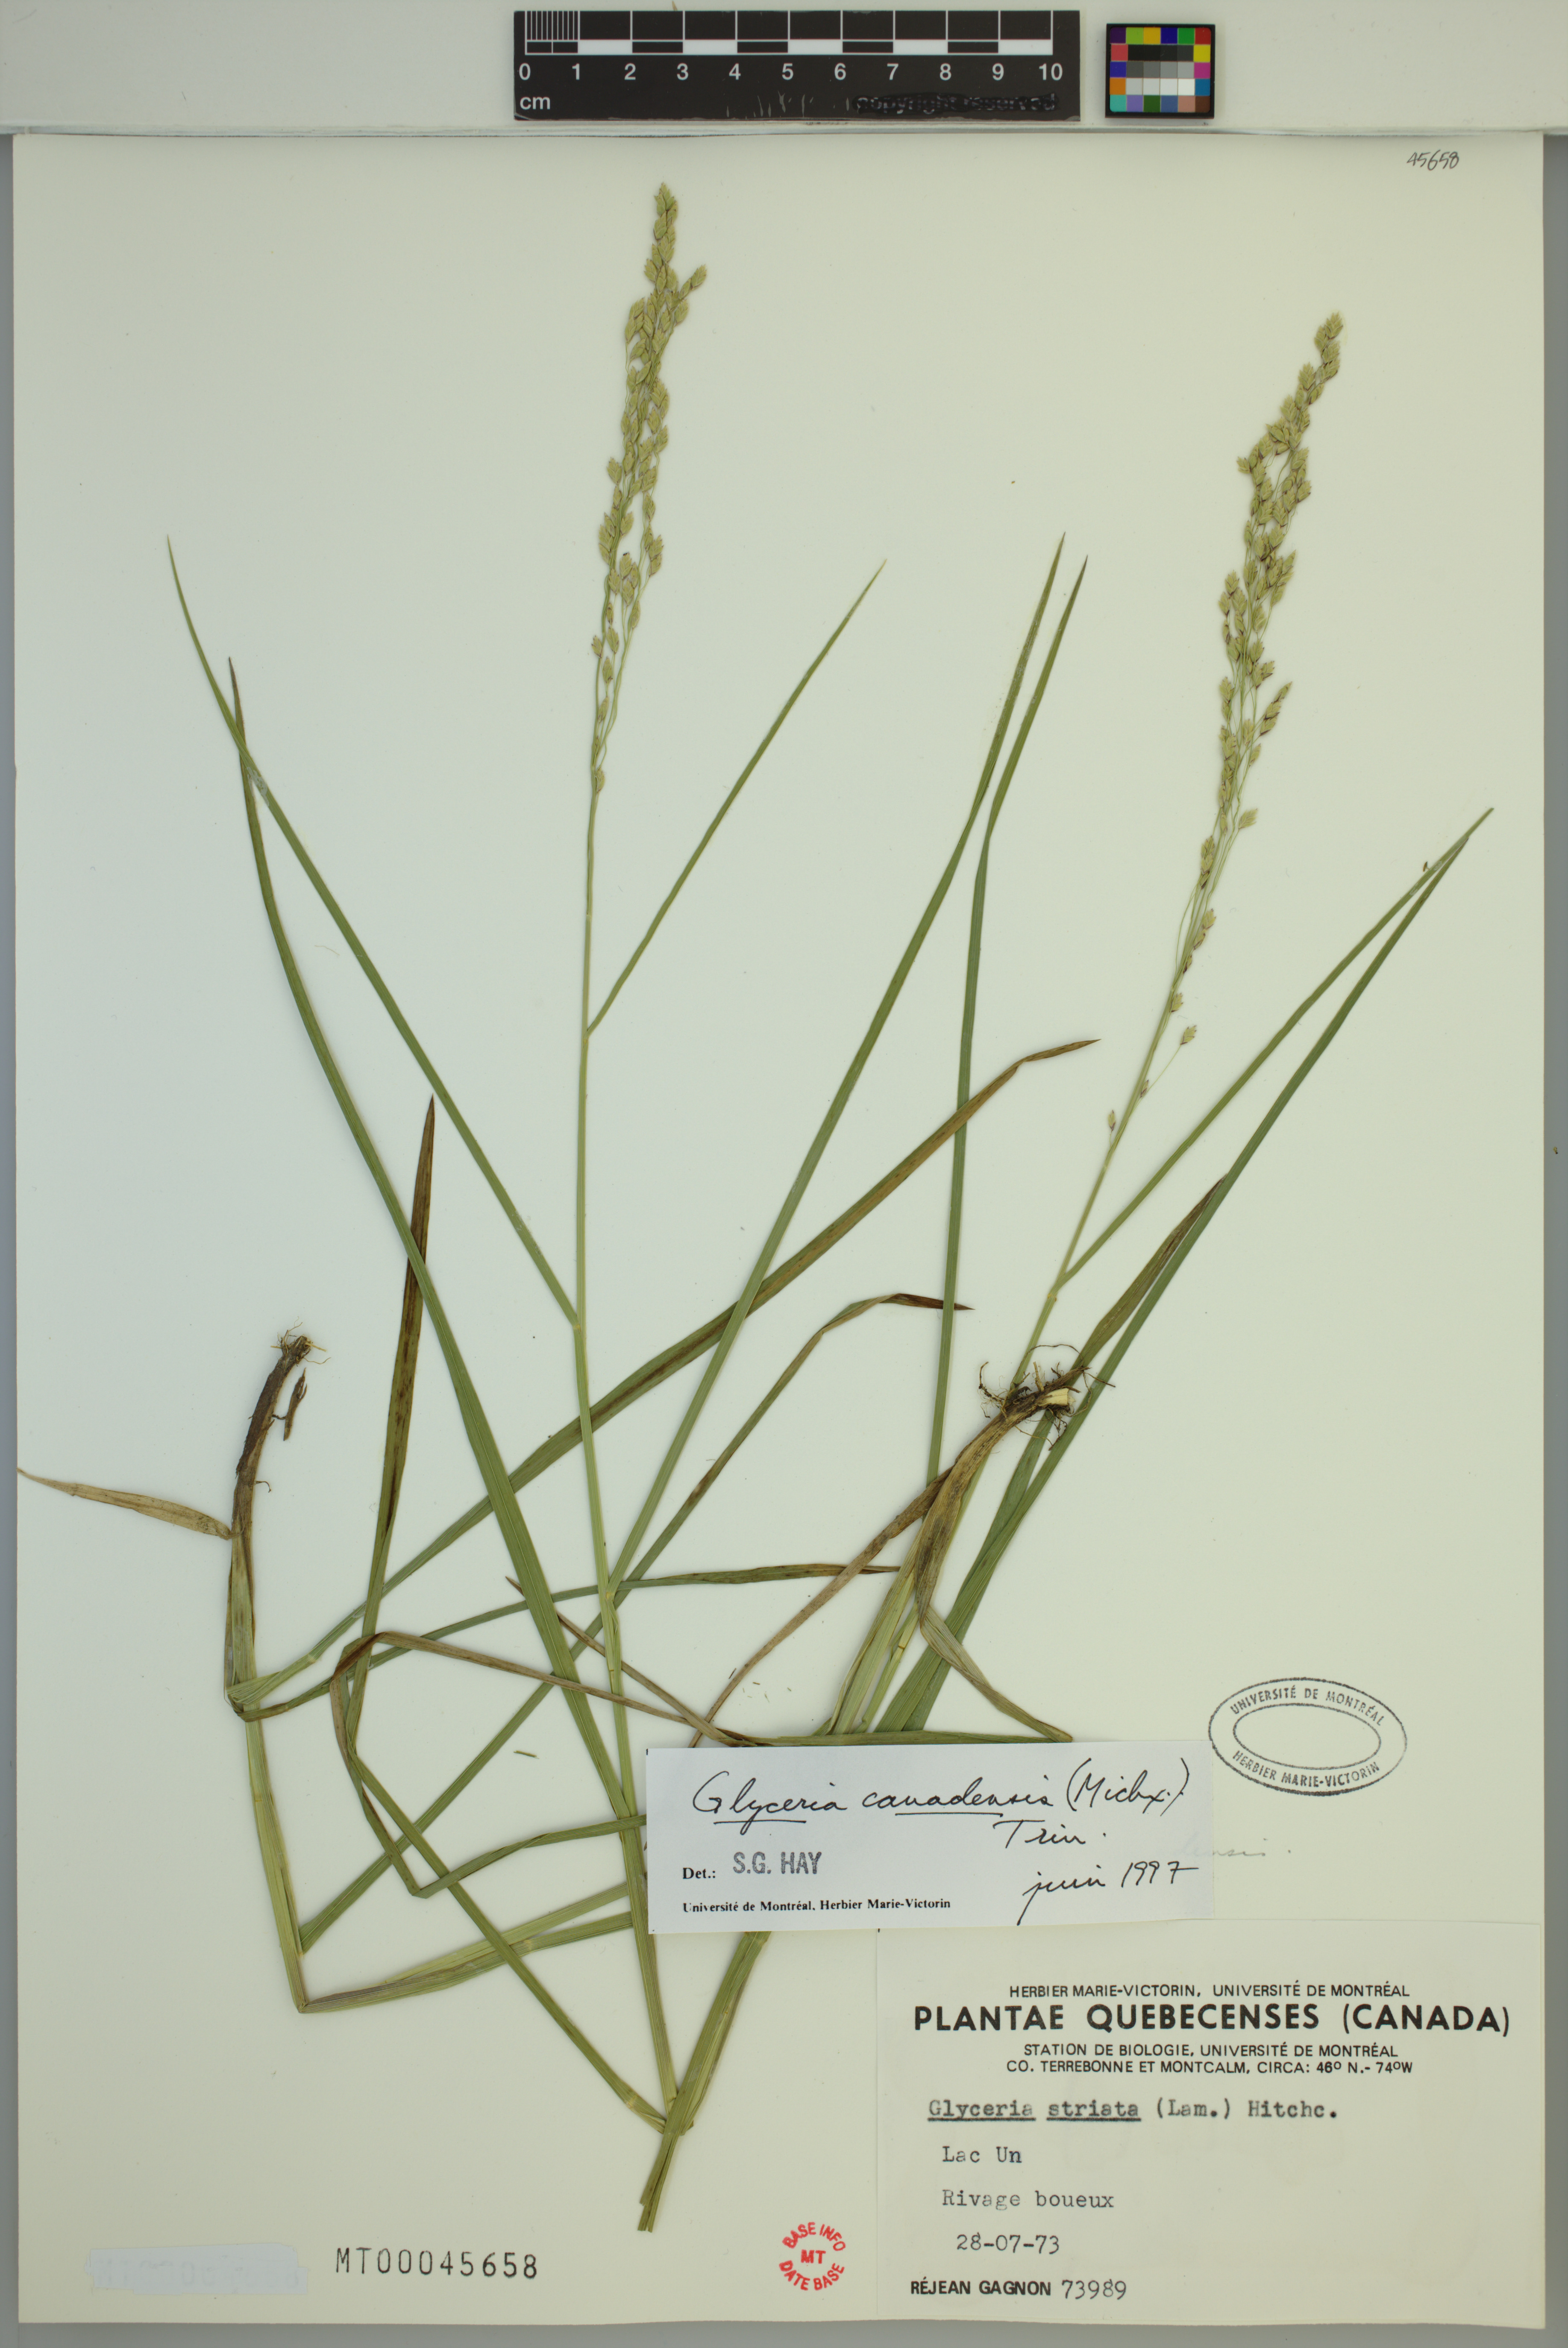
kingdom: Plantae
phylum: Tracheophyta
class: Liliopsida
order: Poales
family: Poaceae
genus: Glyceria
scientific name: Glyceria canadensis
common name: Canada mannagrass
